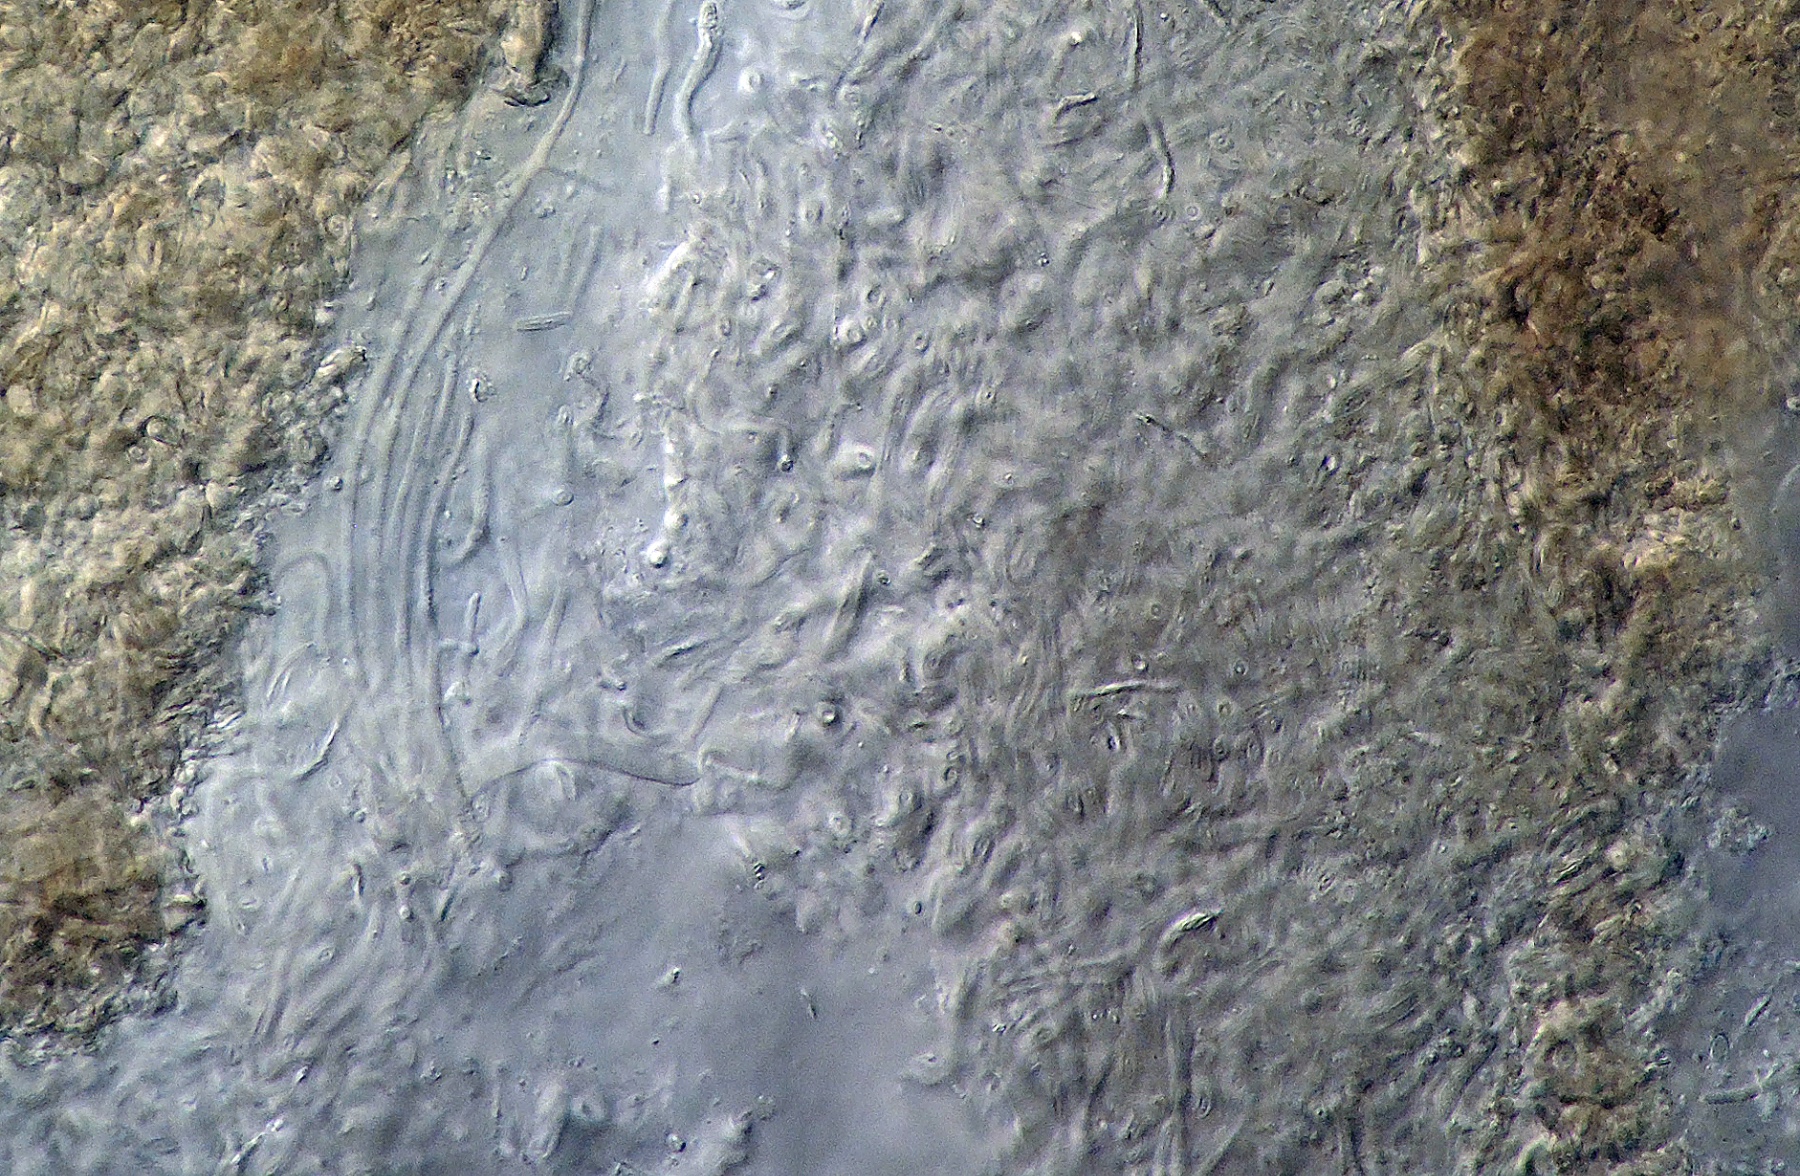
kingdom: Fungi
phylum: Ascomycota
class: Leotiomycetes
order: Leotiales
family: Tympanidaceae
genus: Claussenomyces
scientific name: Claussenomyces
